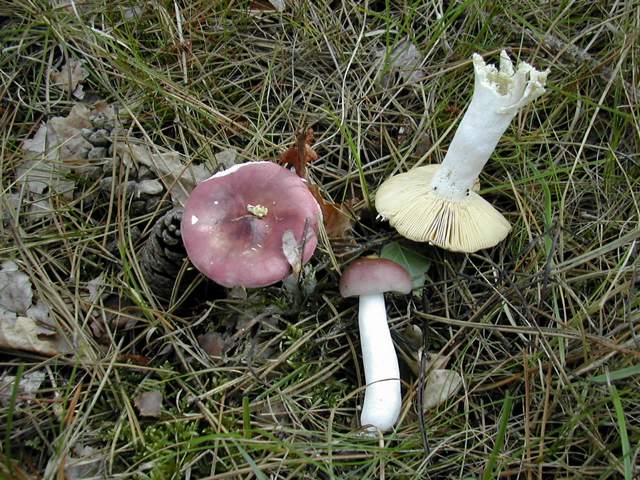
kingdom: Fungi
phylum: Basidiomycota
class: Agaricomycetes
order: Russulales
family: Russulaceae
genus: Russula
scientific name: Russula caerulea
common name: puklet skørhat
